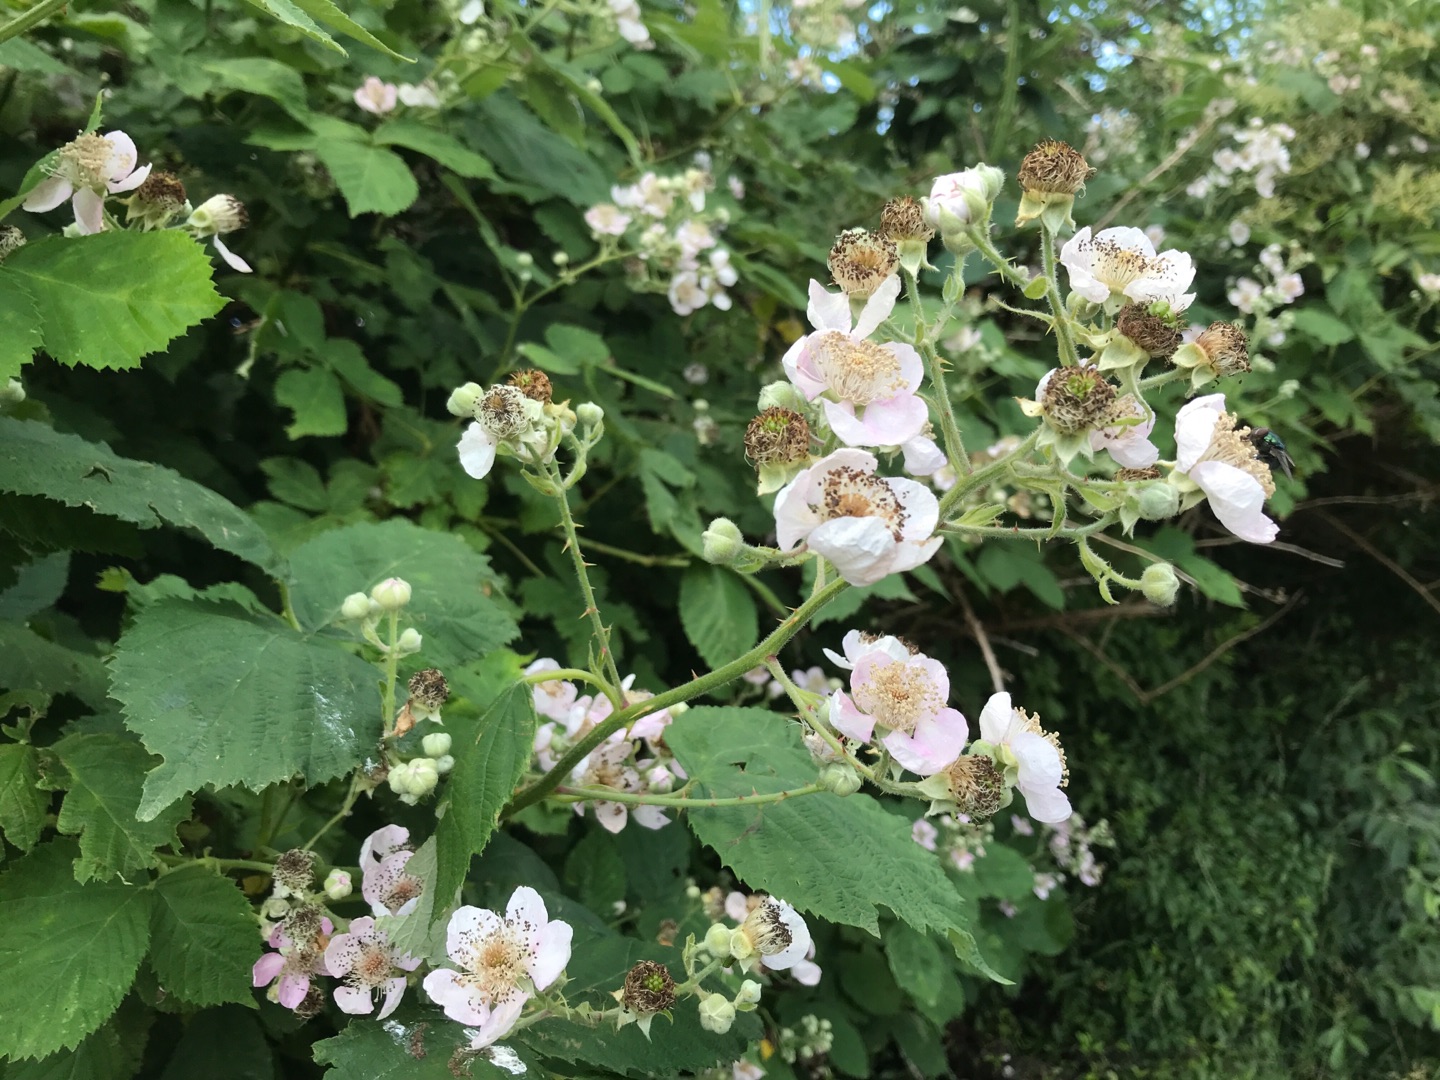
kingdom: Plantae
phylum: Tracheophyta
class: Magnoliopsida
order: Rosales
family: Rosaceae
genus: Rubus
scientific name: Rubus armeniacus
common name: Armensk brombær
